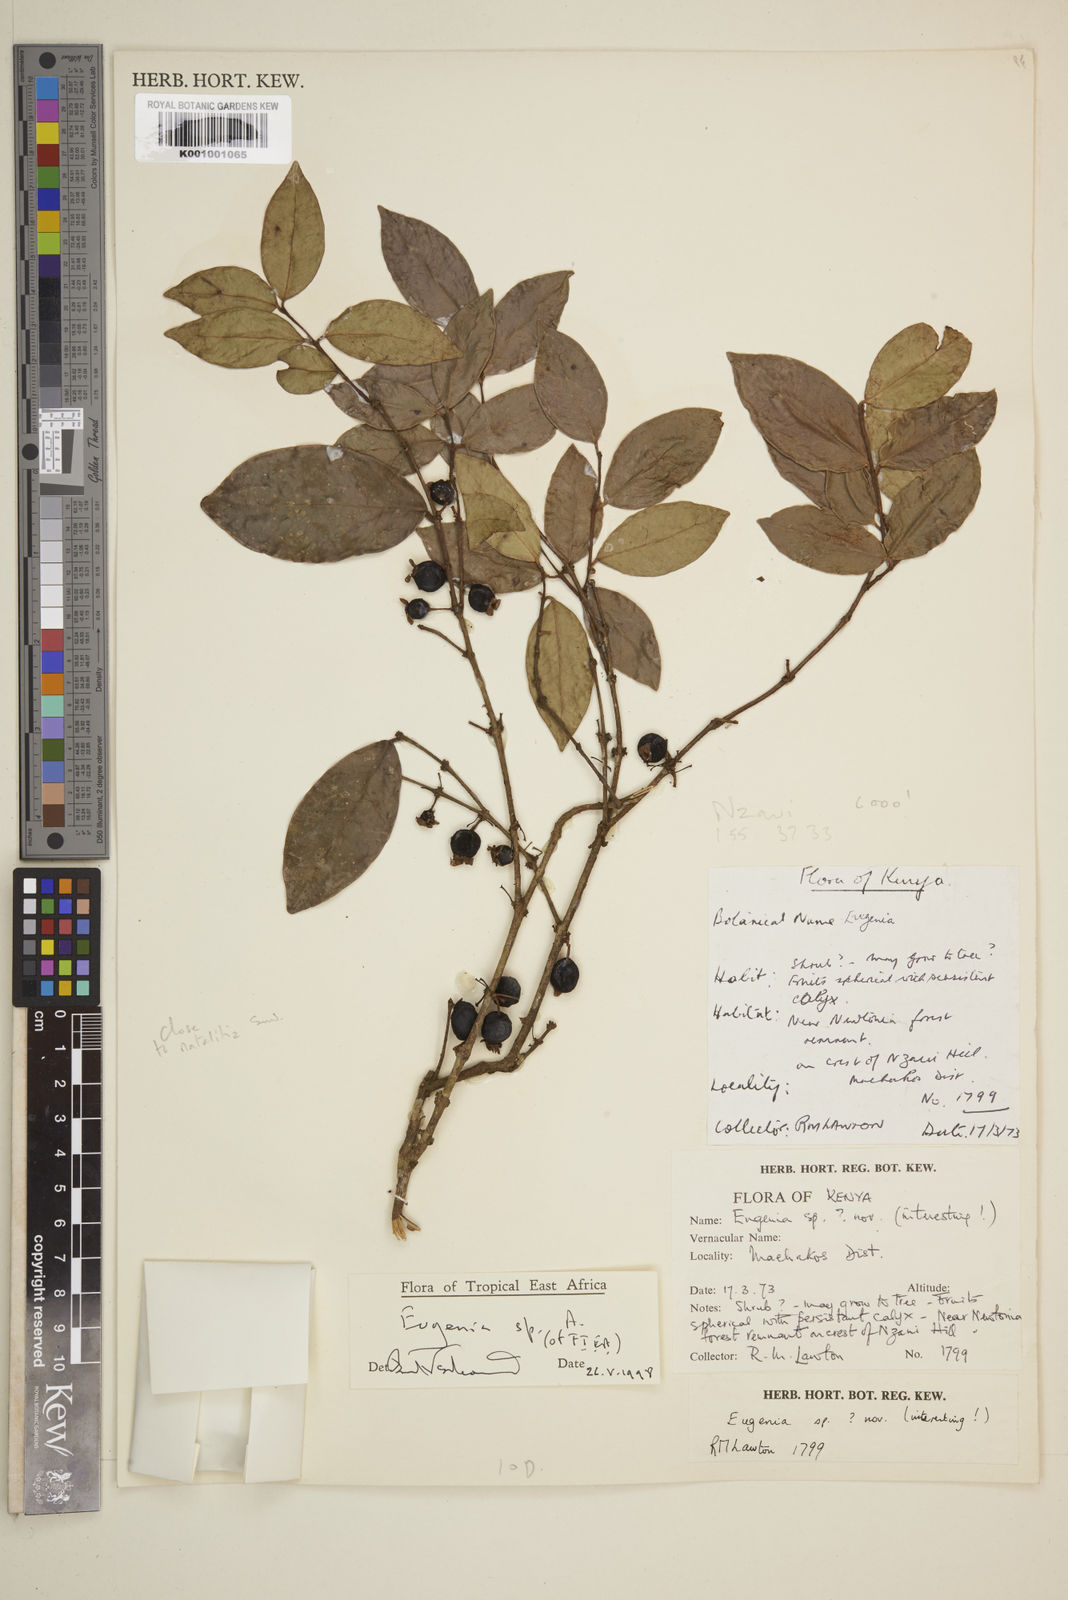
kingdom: Plantae
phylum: Tracheophyta
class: Magnoliopsida
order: Myrtales
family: Myrtaceae
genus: Eugenia
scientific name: Eugenia
